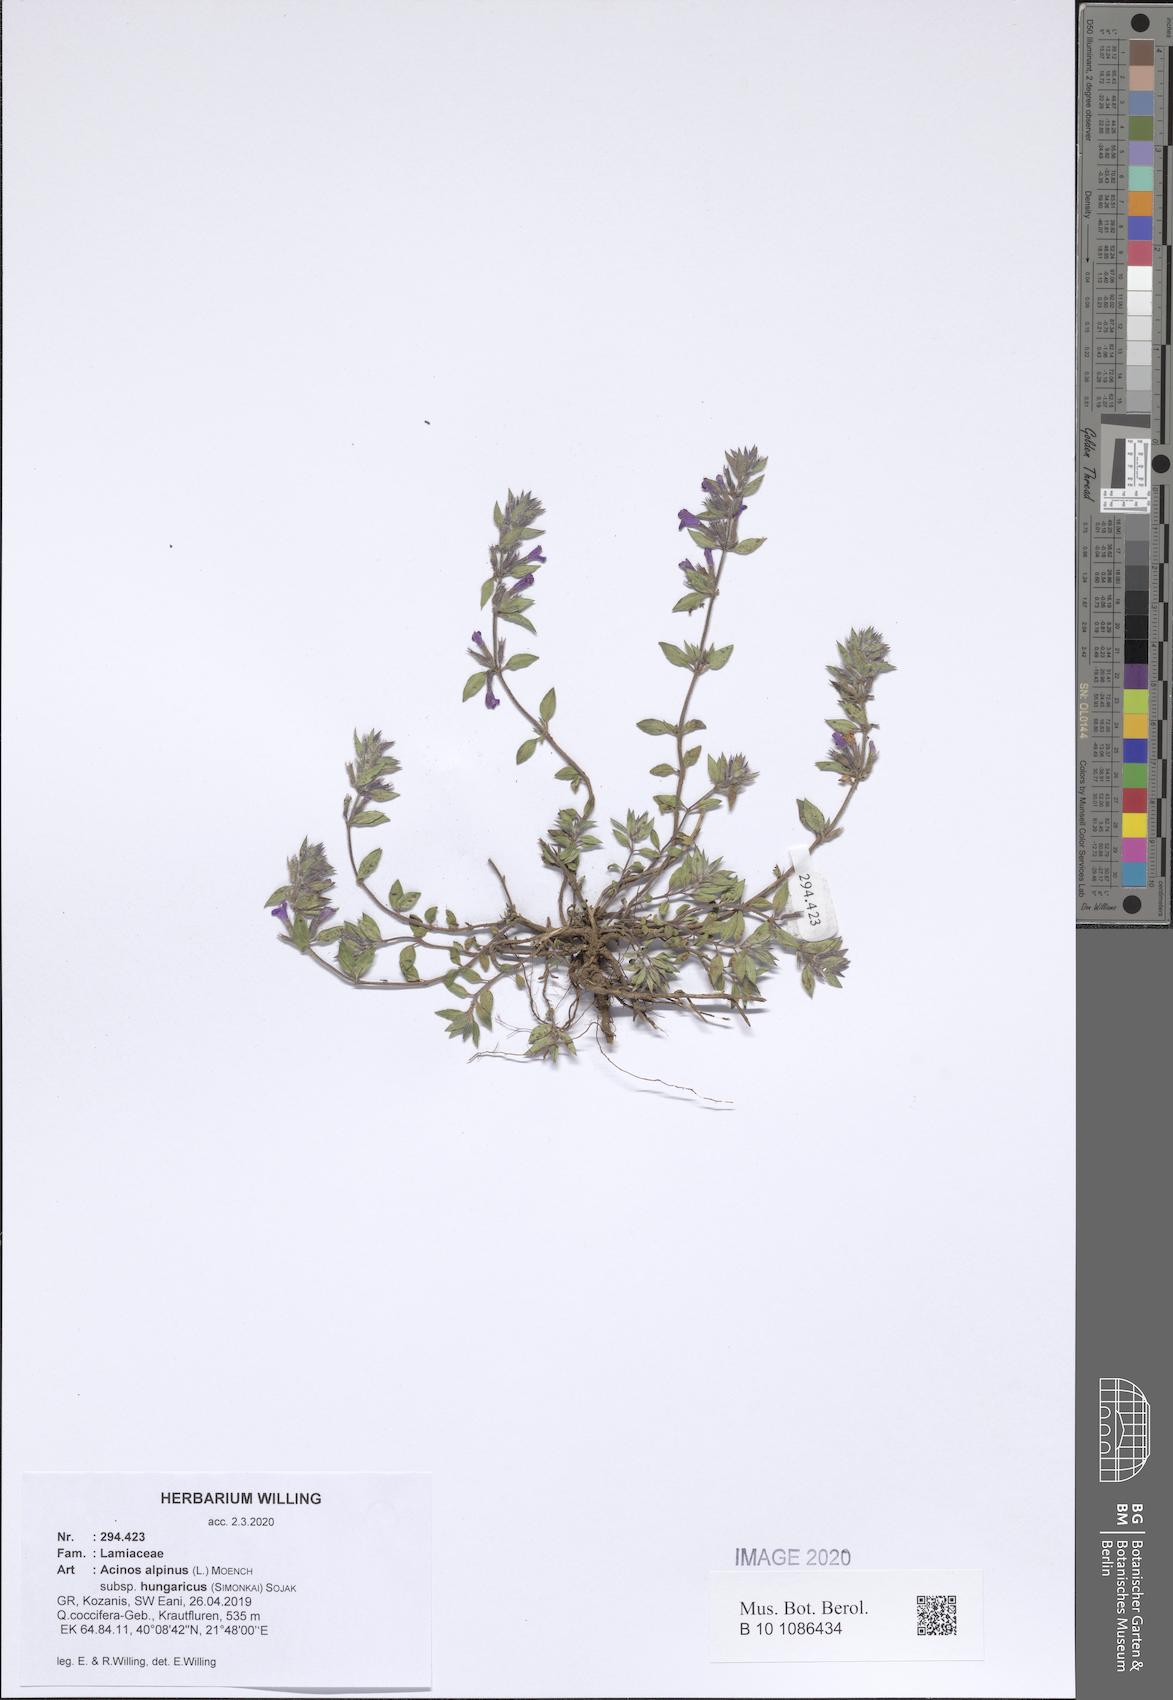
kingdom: Plantae
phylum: Tracheophyta
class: Magnoliopsida
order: Lamiales
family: Lamiaceae
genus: Clinopodium
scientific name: Clinopodium alpinum
